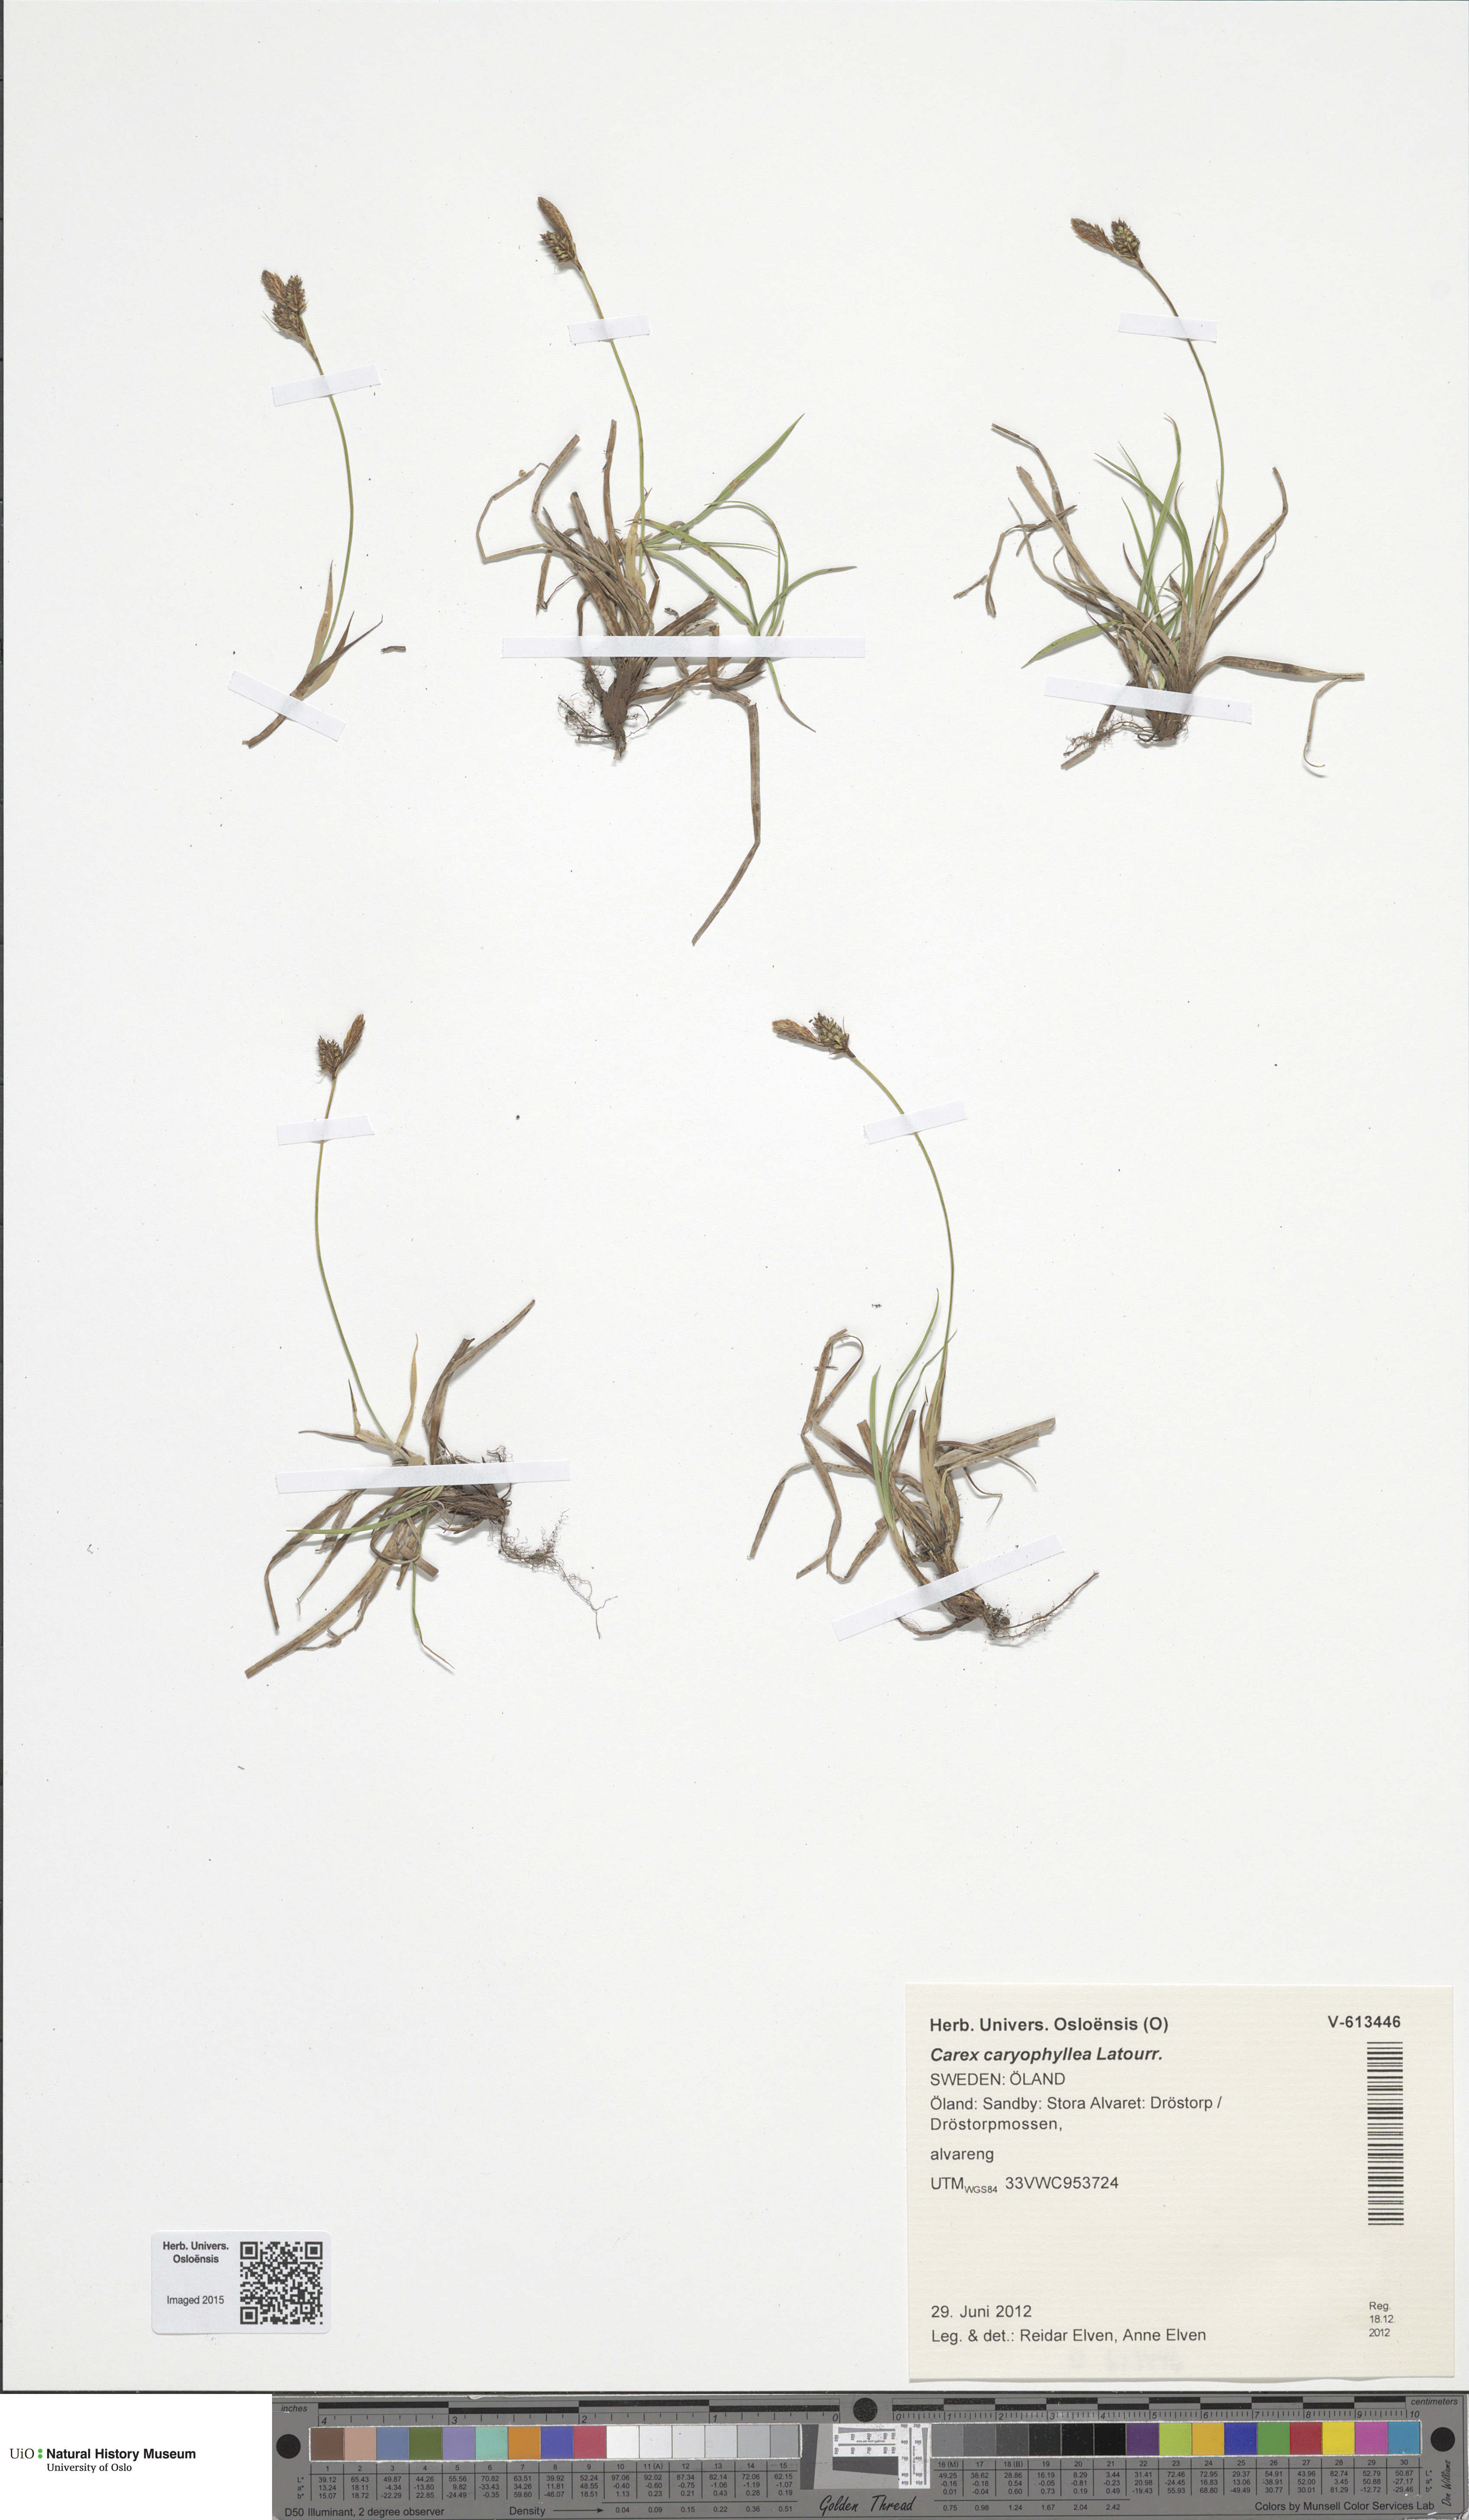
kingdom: Plantae
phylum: Tracheophyta
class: Liliopsida
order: Poales
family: Cyperaceae
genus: Carex
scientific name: Carex caryophyllea
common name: Spring sedge
